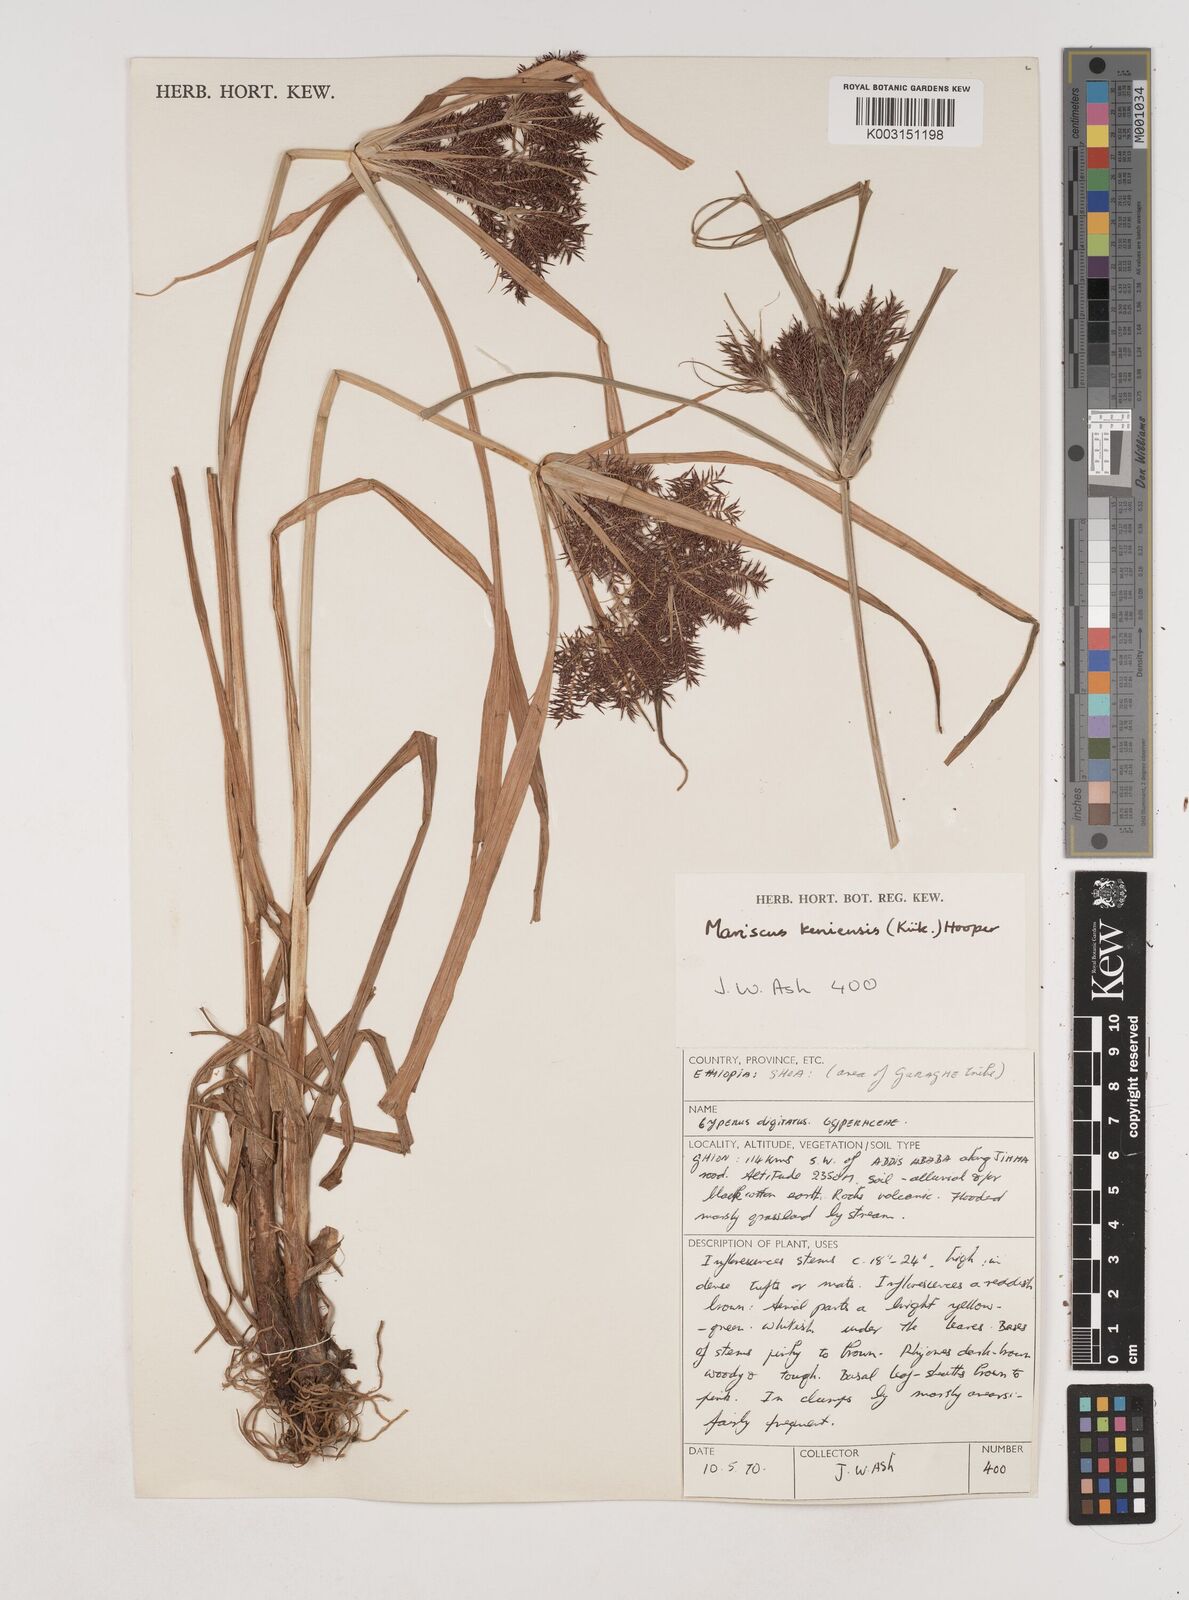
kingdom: Plantae
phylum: Tracheophyta
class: Liliopsida
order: Poales
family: Cyperaceae
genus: Cyperus
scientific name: Cyperus distans
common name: Slender cyperus
